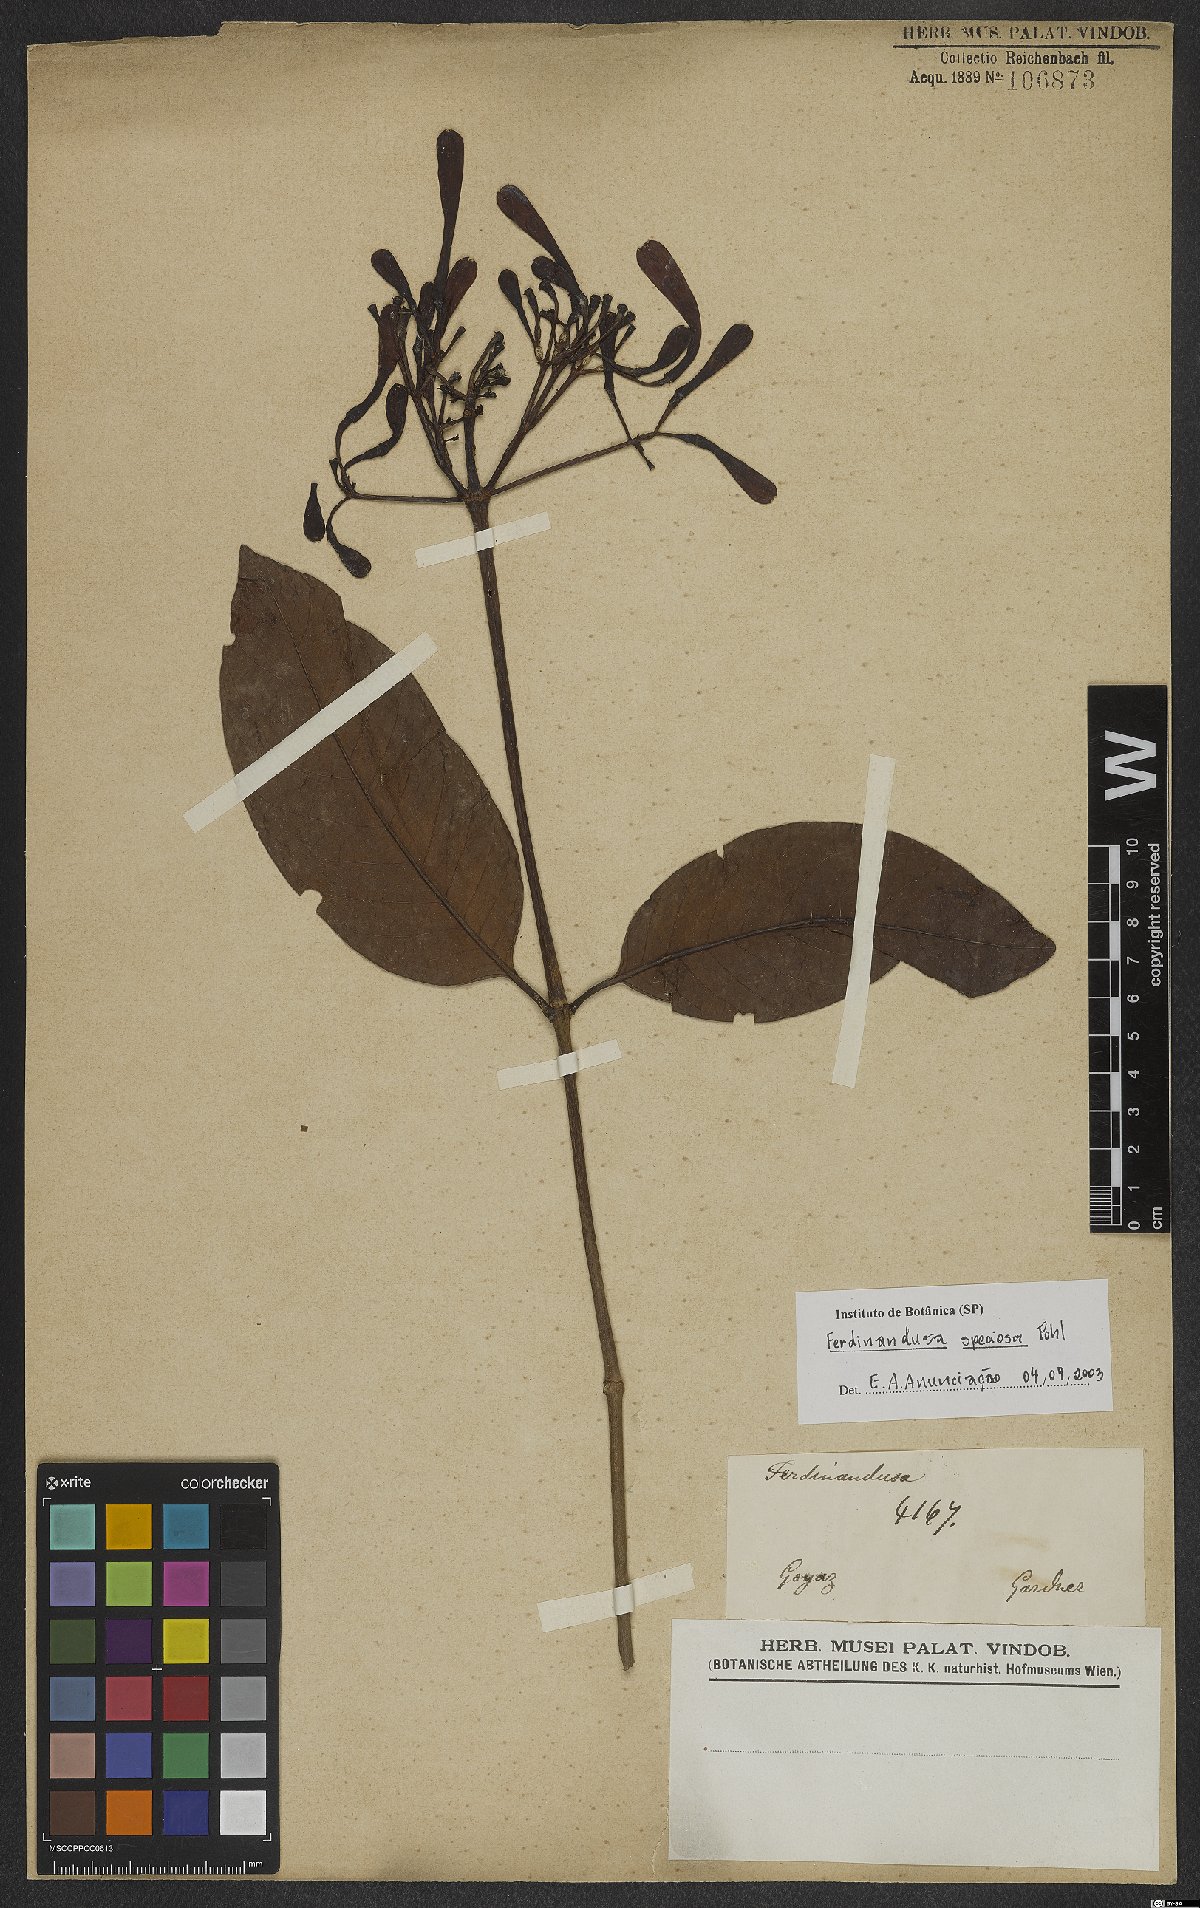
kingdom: Plantae
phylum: Tracheophyta
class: Magnoliopsida
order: Gentianales
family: Rubiaceae
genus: Ferdinandusa
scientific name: Ferdinandusa speciosa
